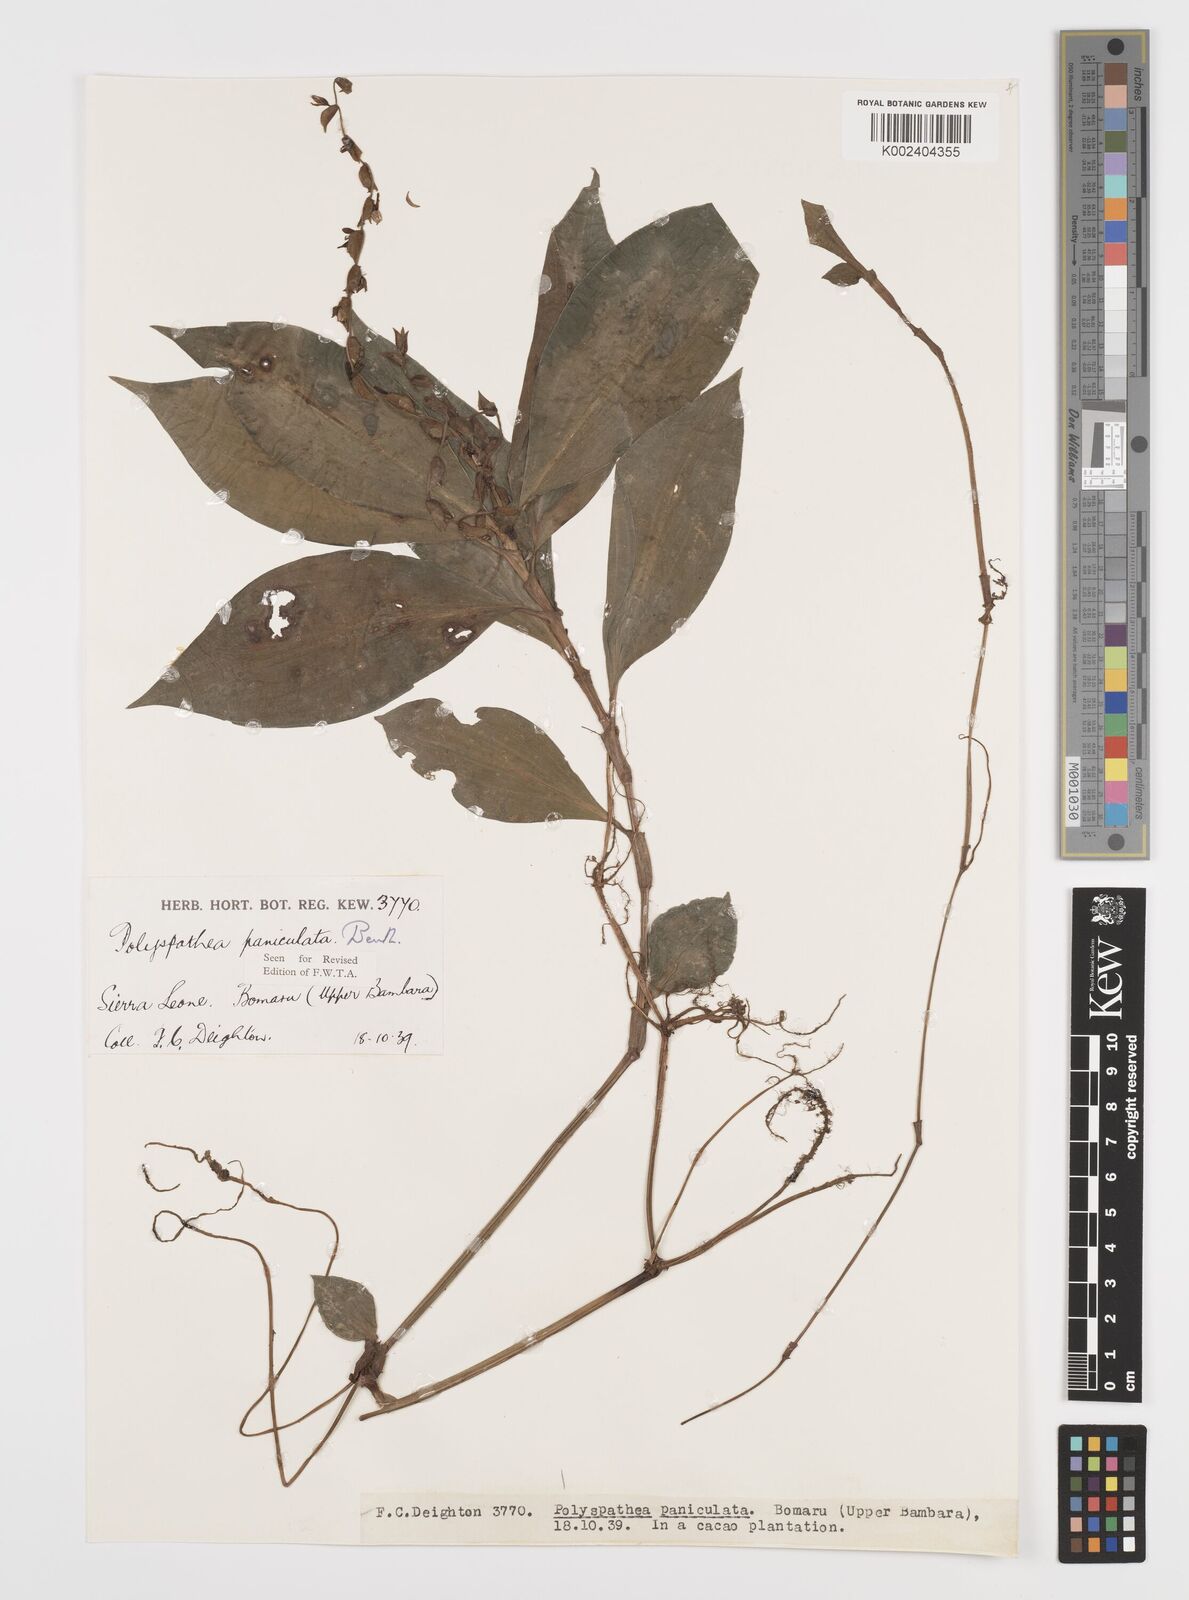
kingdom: Plantae
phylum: Tracheophyta
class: Liliopsida
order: Commelinales
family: Commelinaceae
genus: Polyspatha
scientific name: Polyspatha paniculata
